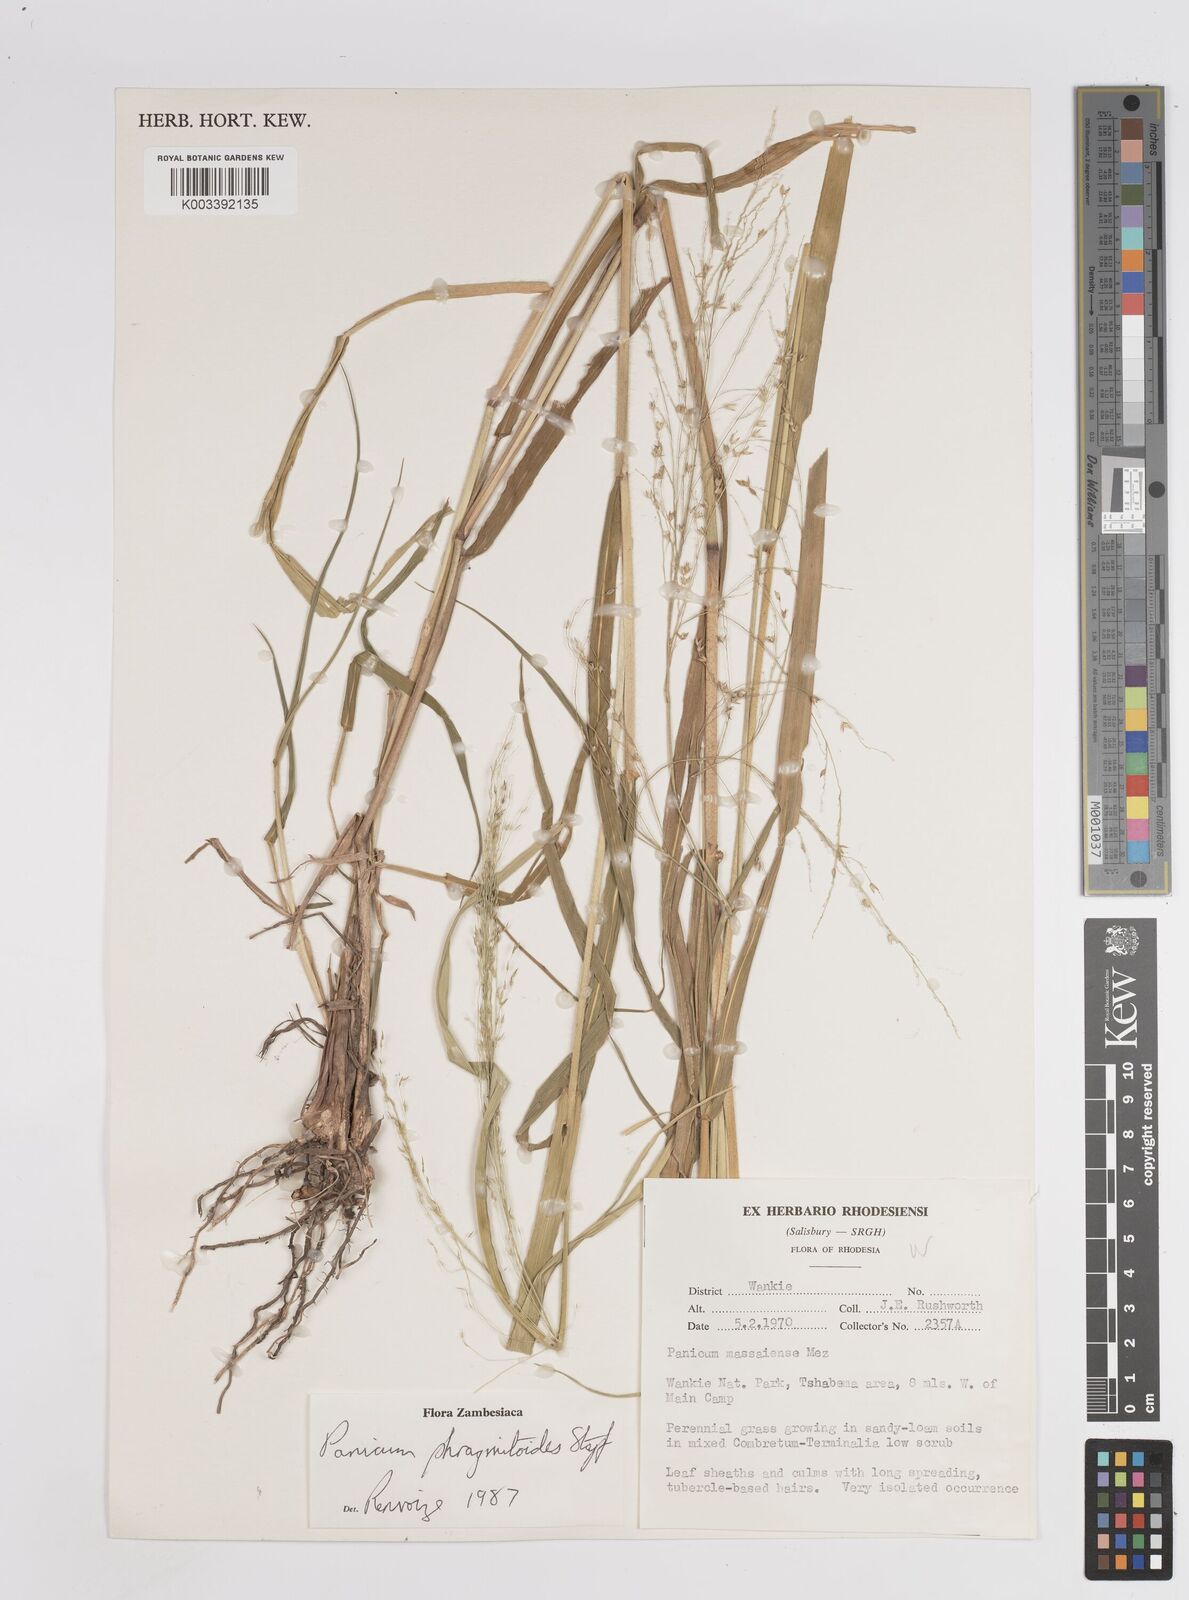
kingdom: Plantae
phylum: Tracheophyta
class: Liliopsida
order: Poales
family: Poaceae
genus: Panicum
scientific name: Panicum phragmitoides
